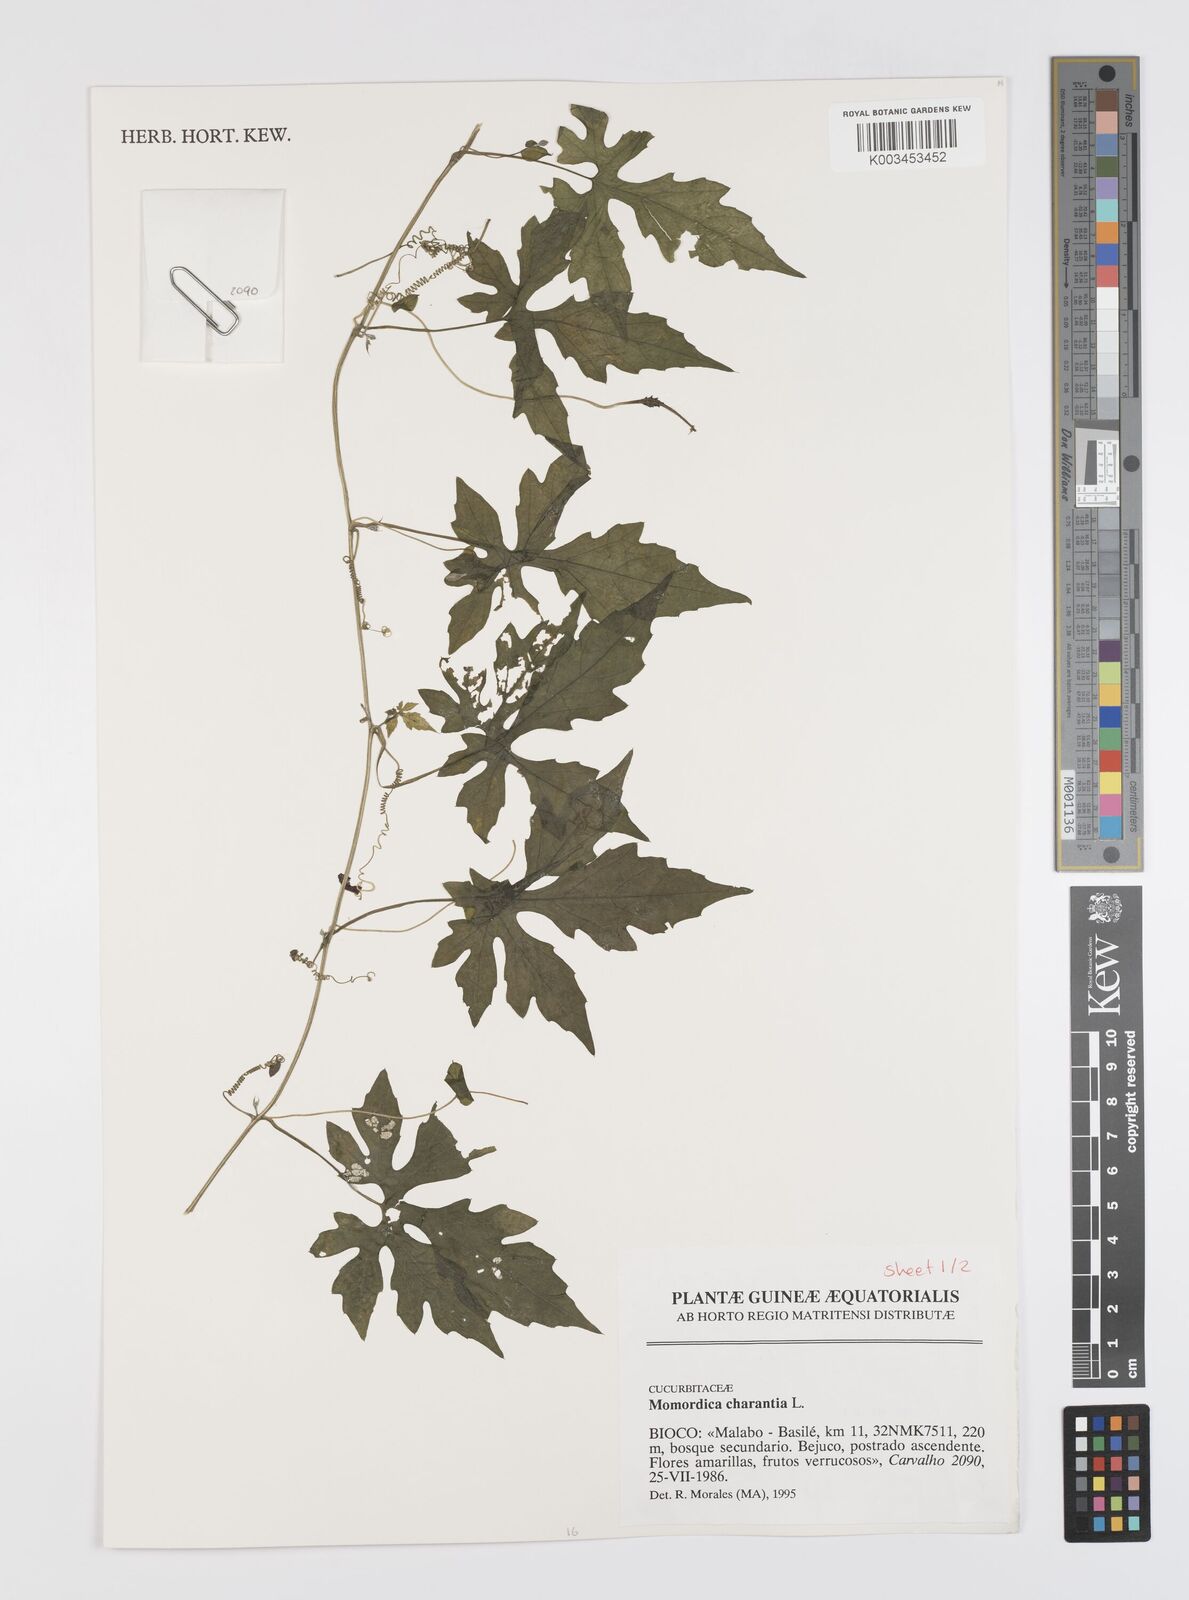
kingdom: Plantae
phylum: Tracheophyta
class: Magnoliopsida
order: Cucurbitales
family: Cucurbitaceae
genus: Momordica
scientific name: Momordica charantia
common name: Balsampear
